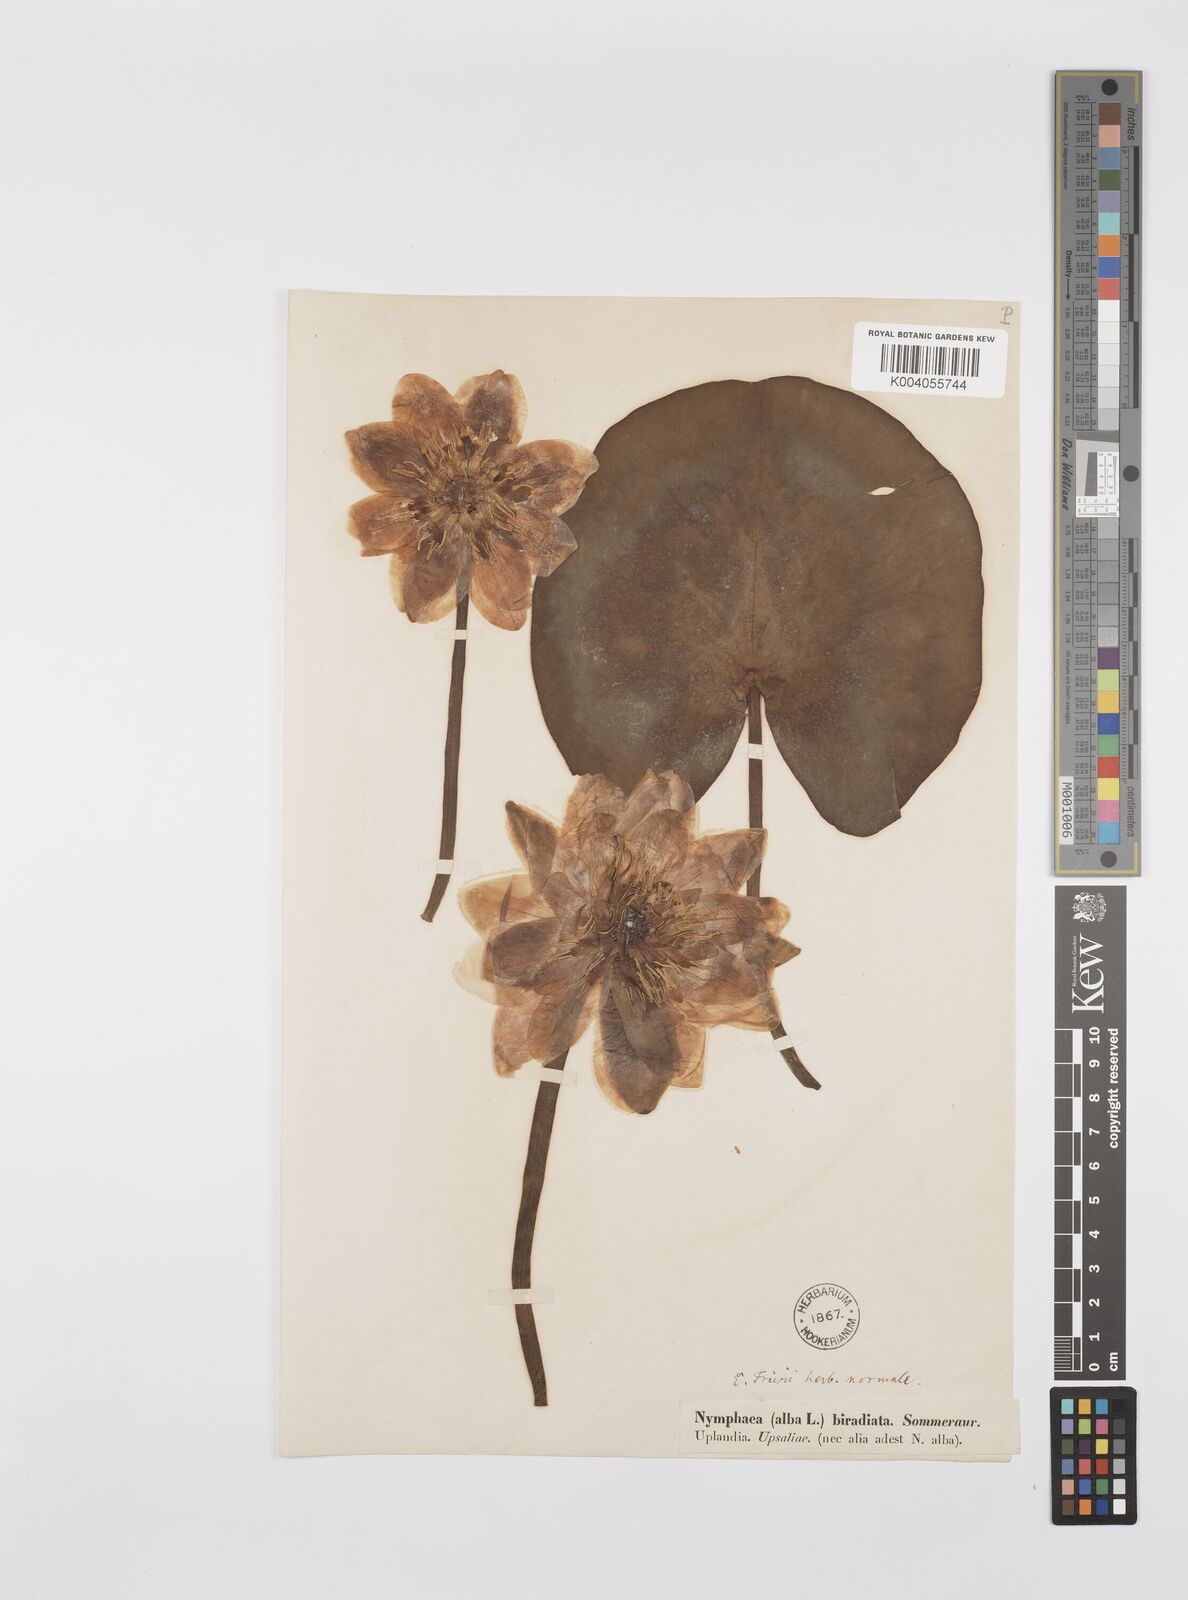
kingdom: Plantae
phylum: Tracheophyta
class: Magnoliopsida
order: Nymphaeales
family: Nymphaeaceae
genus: Nymphaea
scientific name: Nymphaea alba
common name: White water-lily
